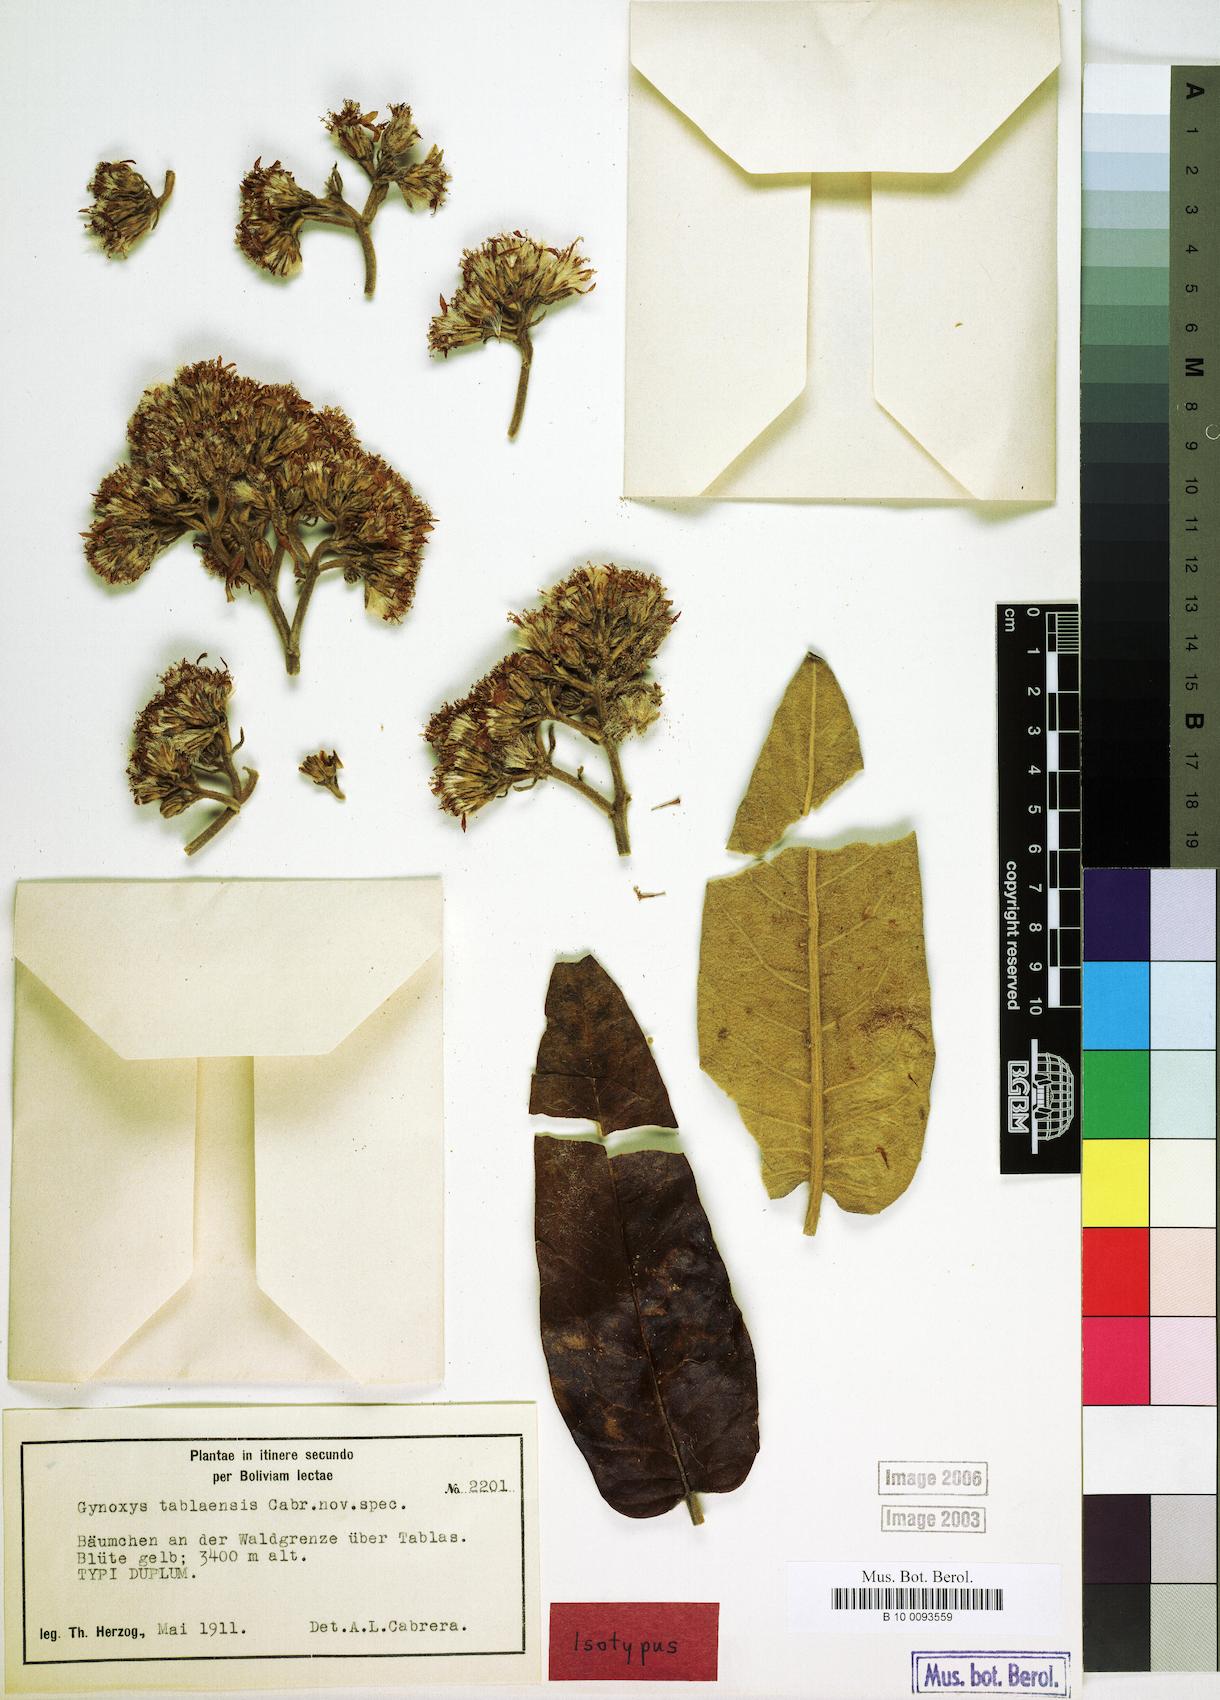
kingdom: Plantae
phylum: Tracheophyta
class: Magnoliopsida
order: Asterales
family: Asteraceae
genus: Gynoxys
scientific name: Gynoxys tablaensis
